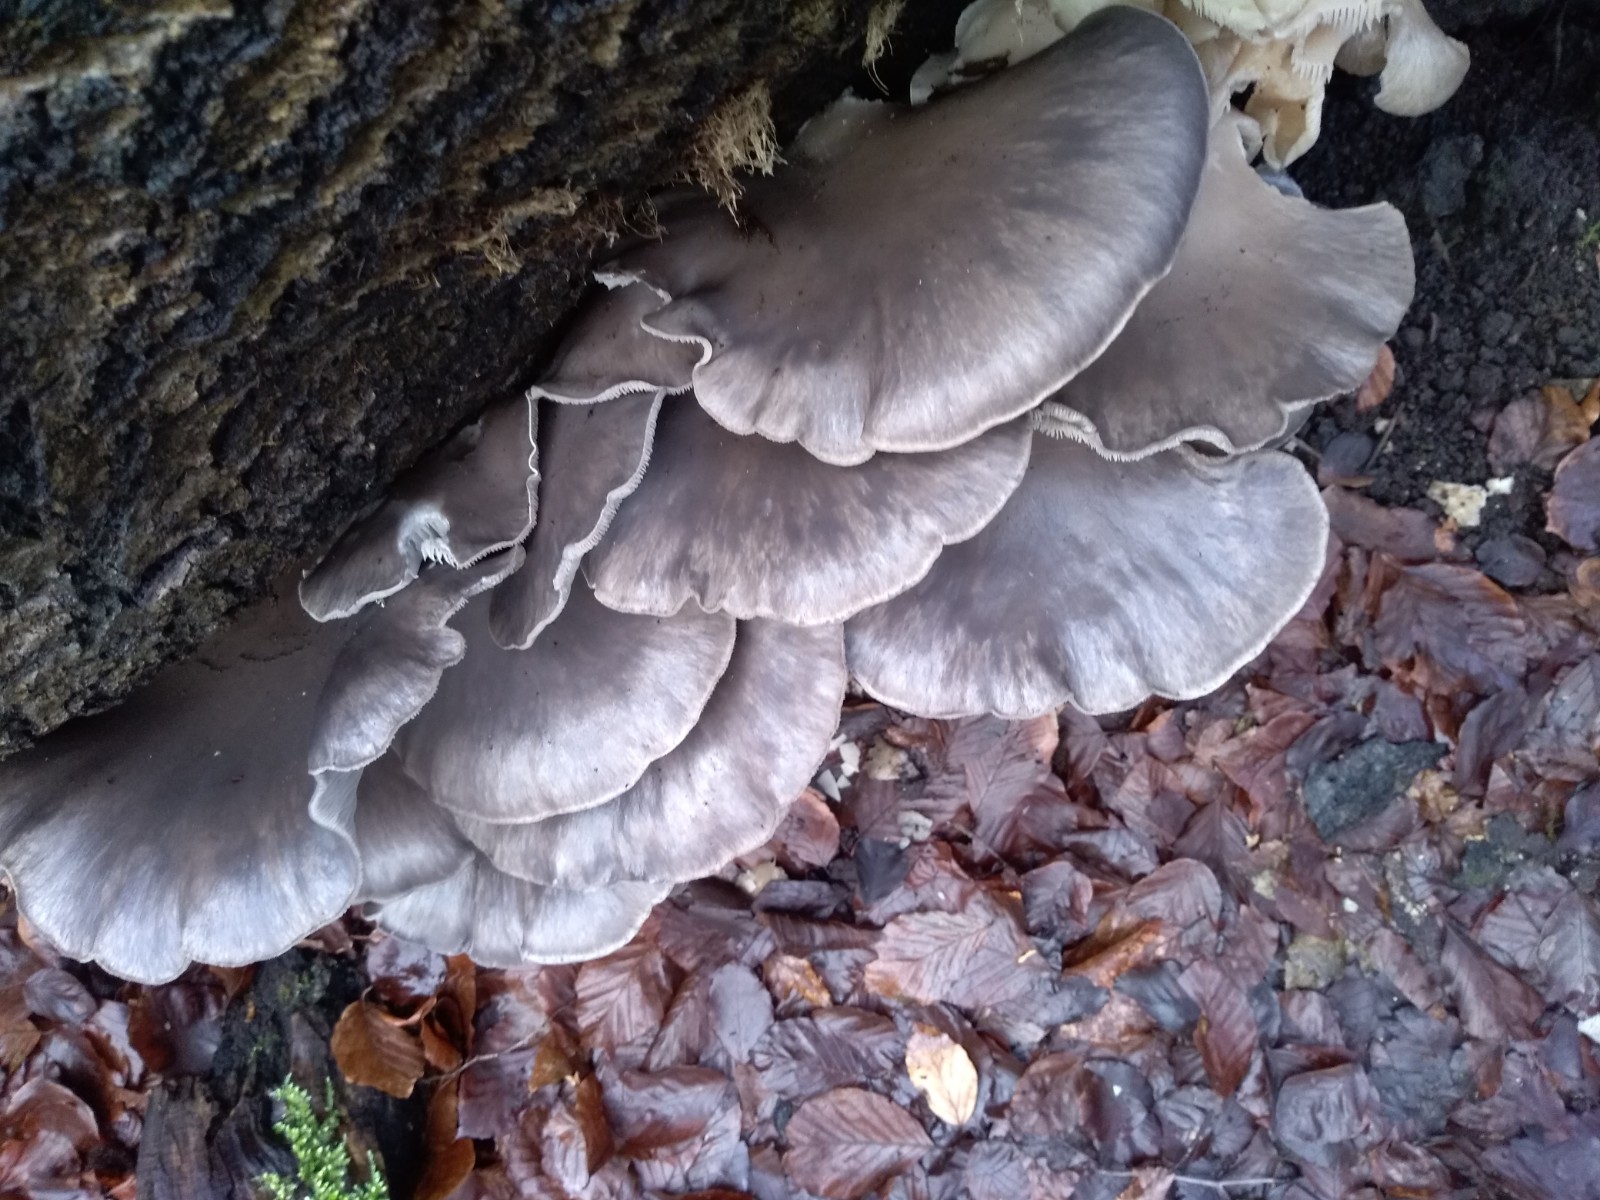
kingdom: Fungi
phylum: Basidiomycota
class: Agaricomycetes
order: Agaricales
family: Pleurotaceae
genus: Pleurotus
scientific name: Pleurotus ostreatus
